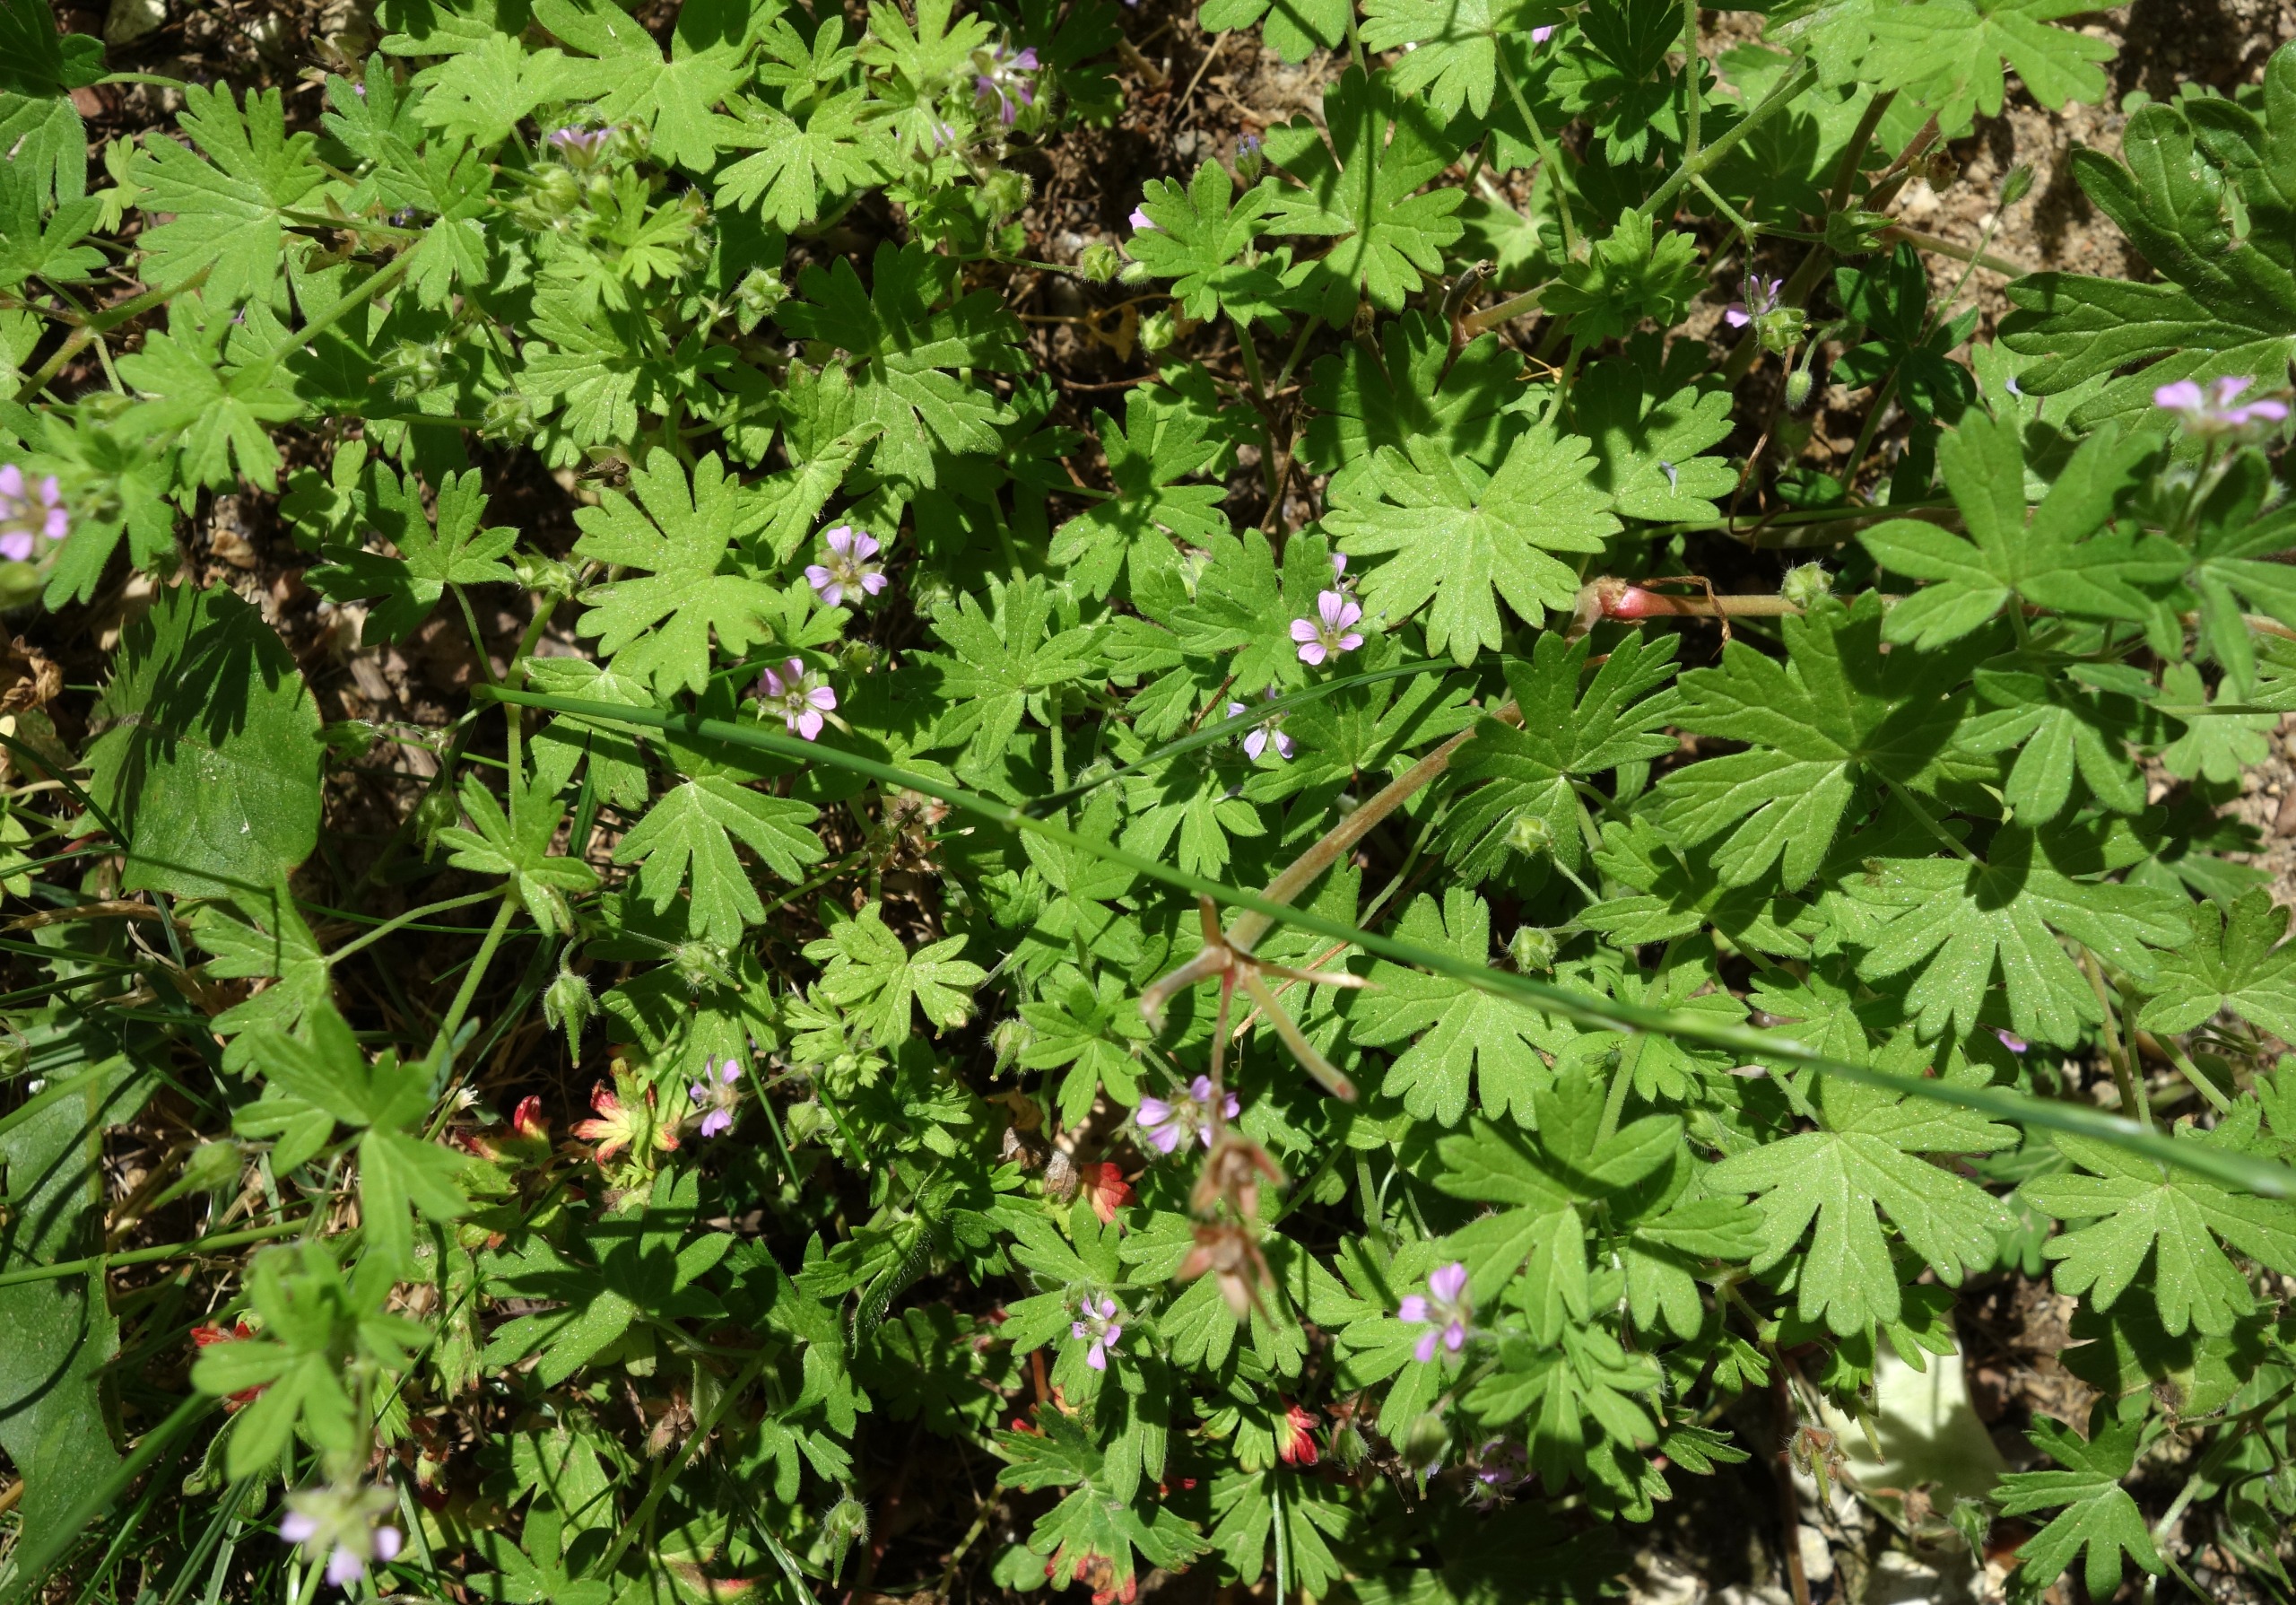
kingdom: Plantae
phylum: Tracheophyta
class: Magnoliopsida
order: Geraniales
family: Geraniaceae
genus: Geranium
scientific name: Geranium pusillum
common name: Liden storkenæb
